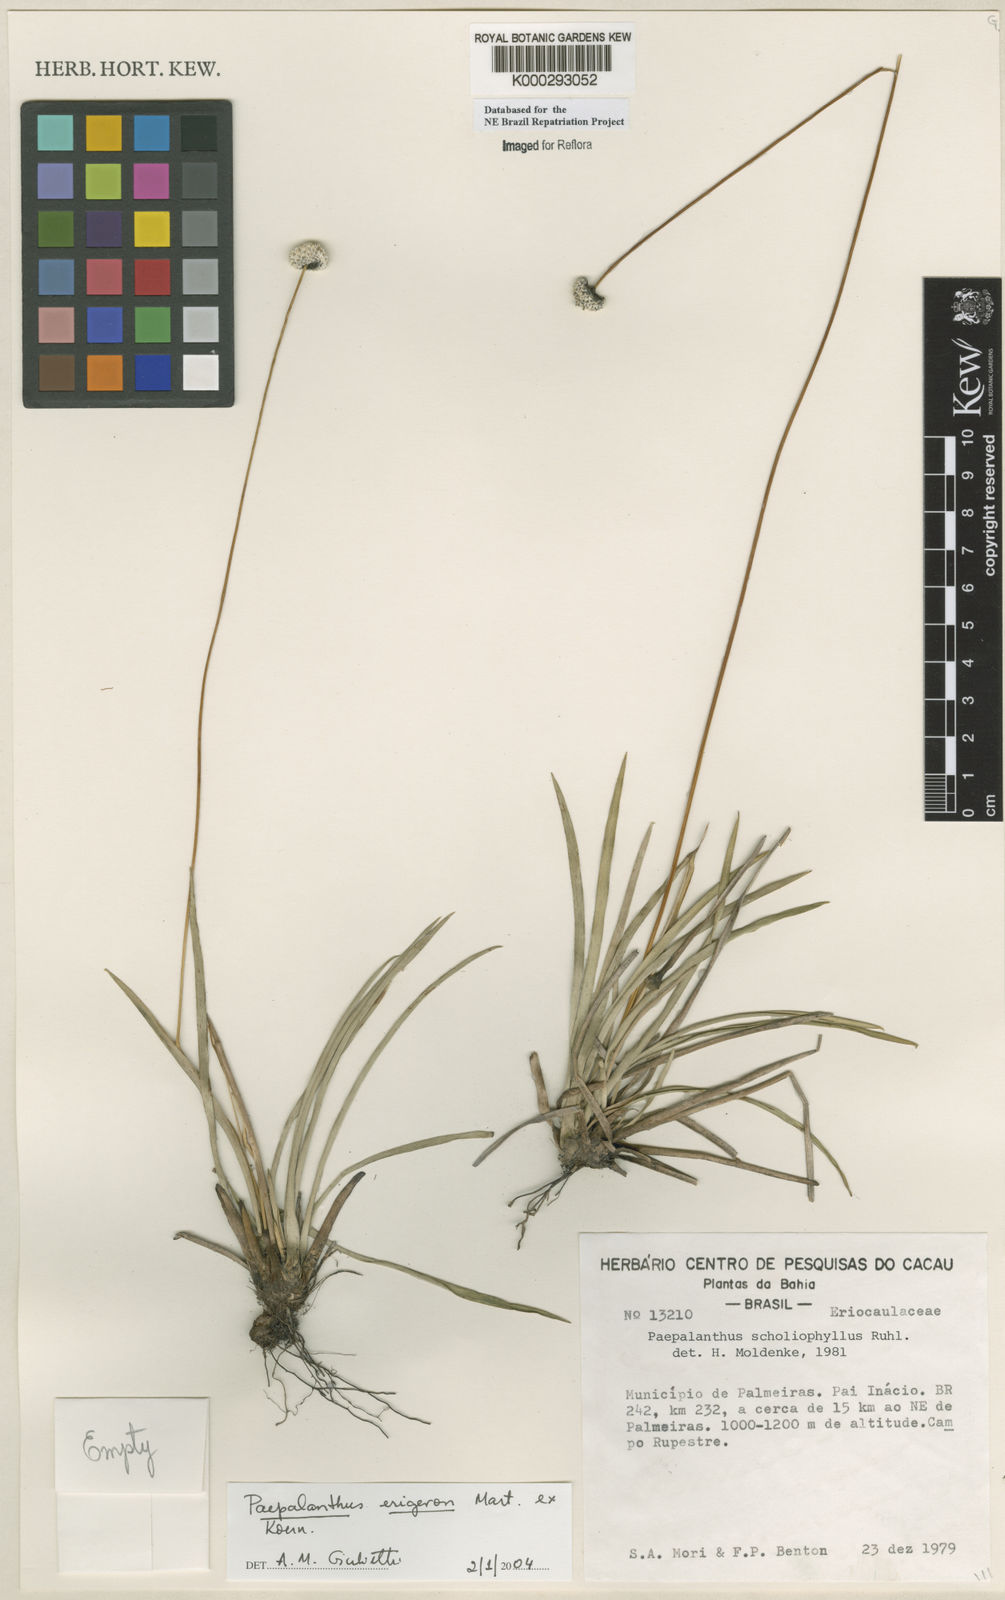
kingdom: Plantae
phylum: Tracheophyta
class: Liliopsida
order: Poales
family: Eriocaulaceae
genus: Paepalanthus
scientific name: Paepalanthus
